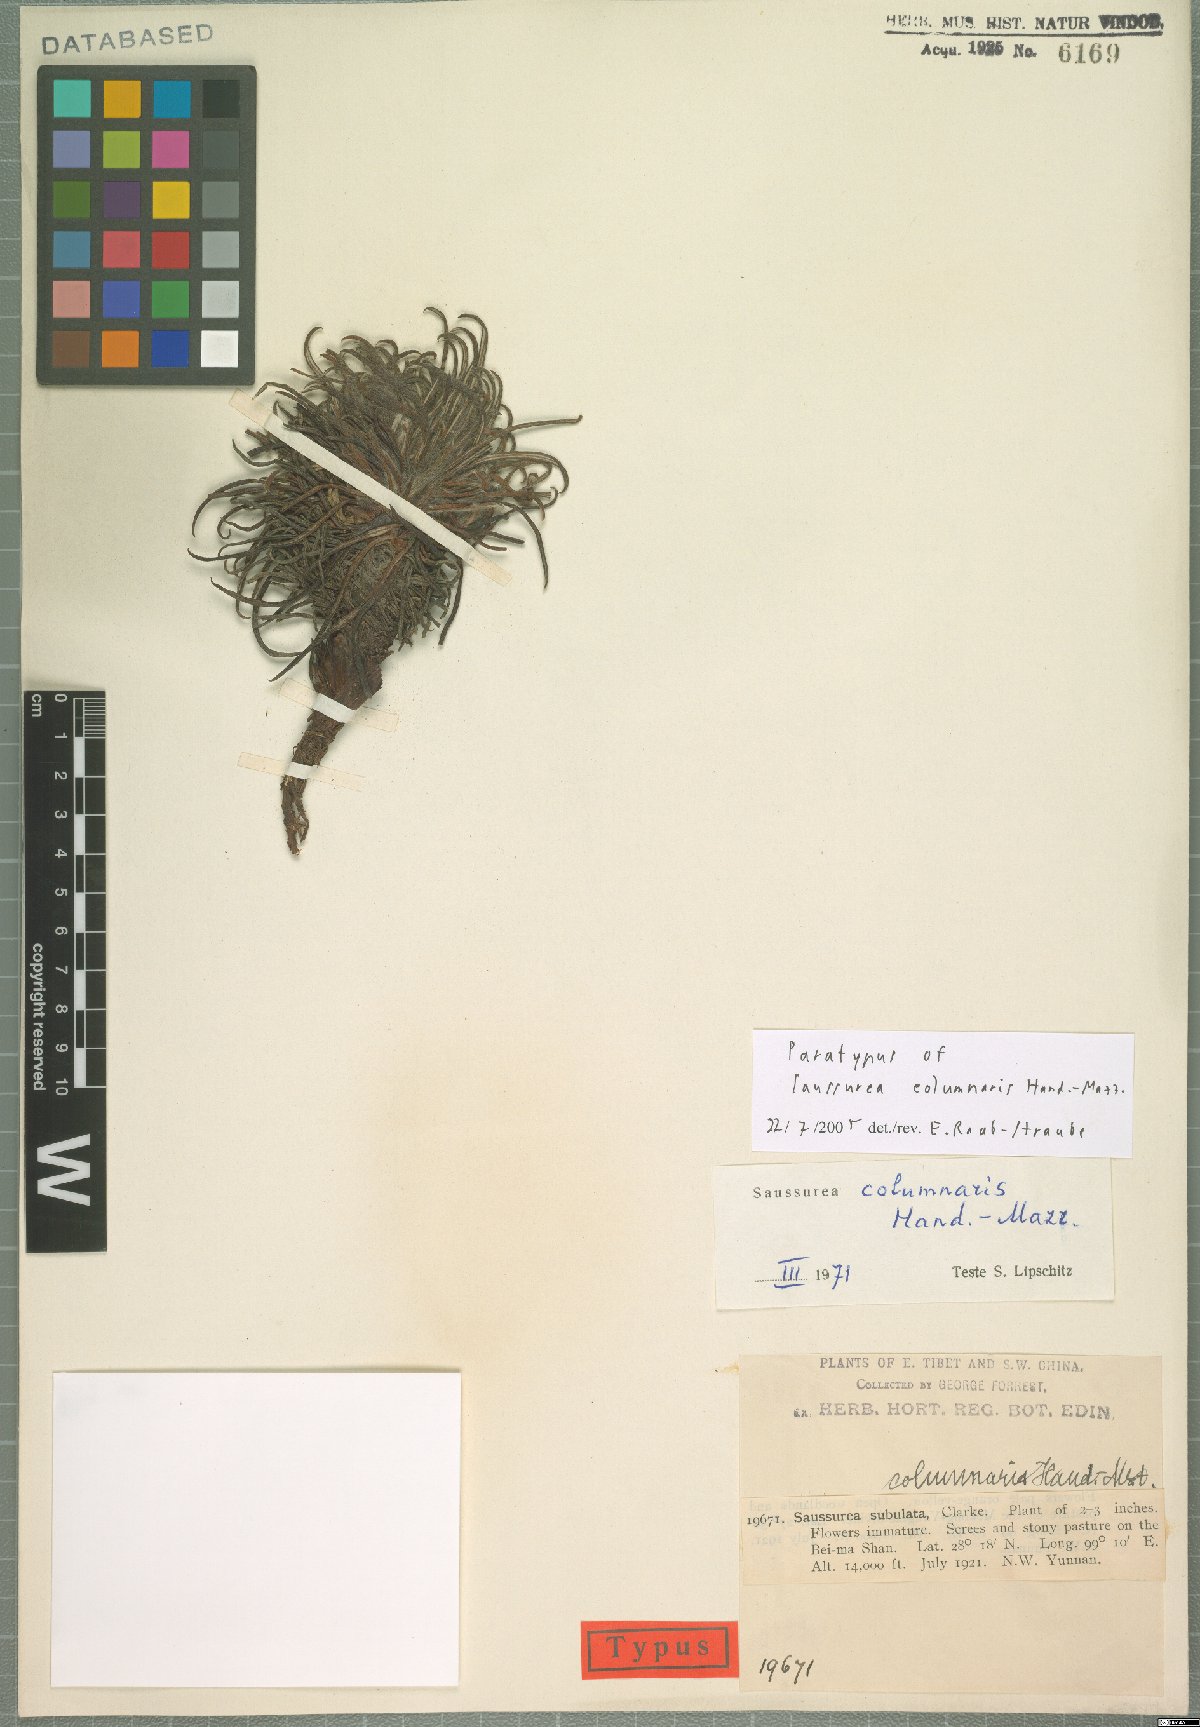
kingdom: Plantae
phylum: Tracheophyta
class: Magnoliopsida
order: Asterales
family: Asteraceae
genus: Saussurea
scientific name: Saussurea columnaris
